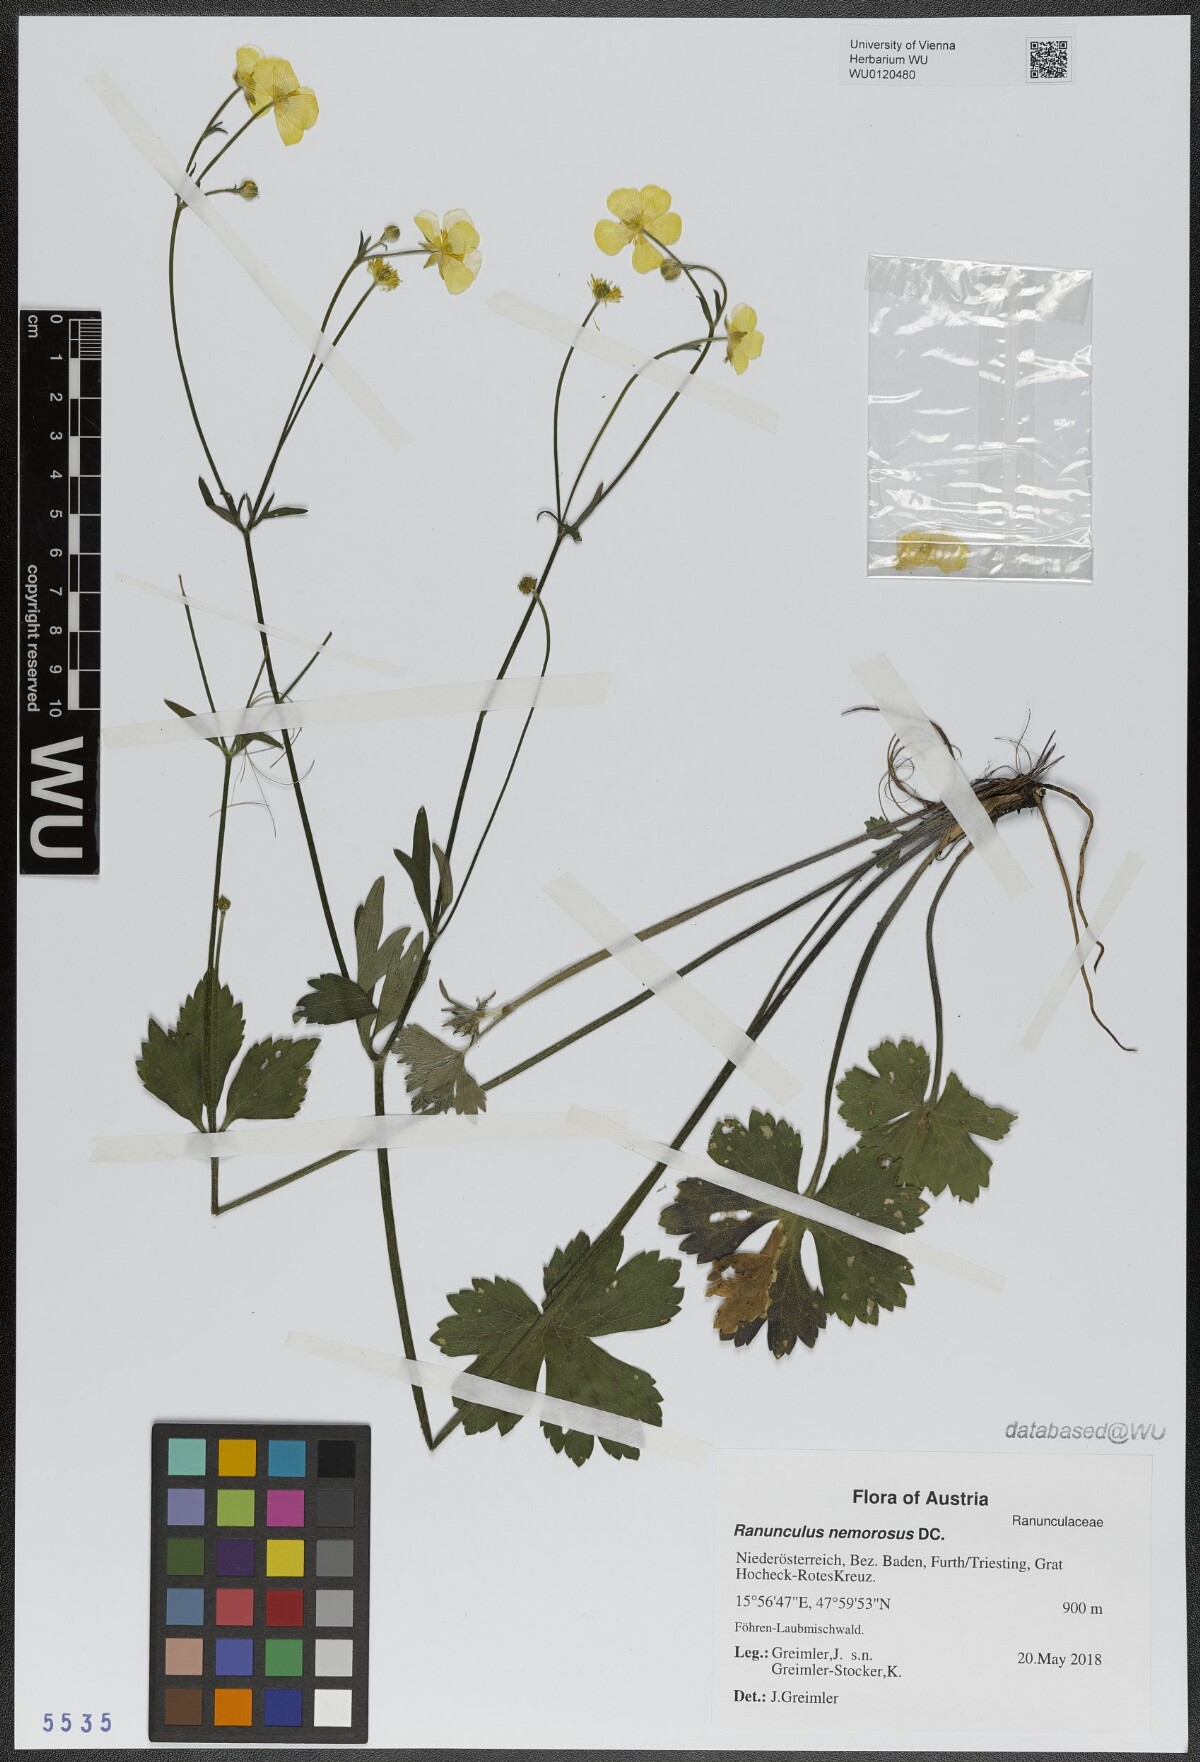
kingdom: Plantae
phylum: Tracheophyta
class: Magnoliopsida
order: Ranunculales
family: Ranunculaceae
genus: Ranunculus
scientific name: Ranunculus polyanthemos
